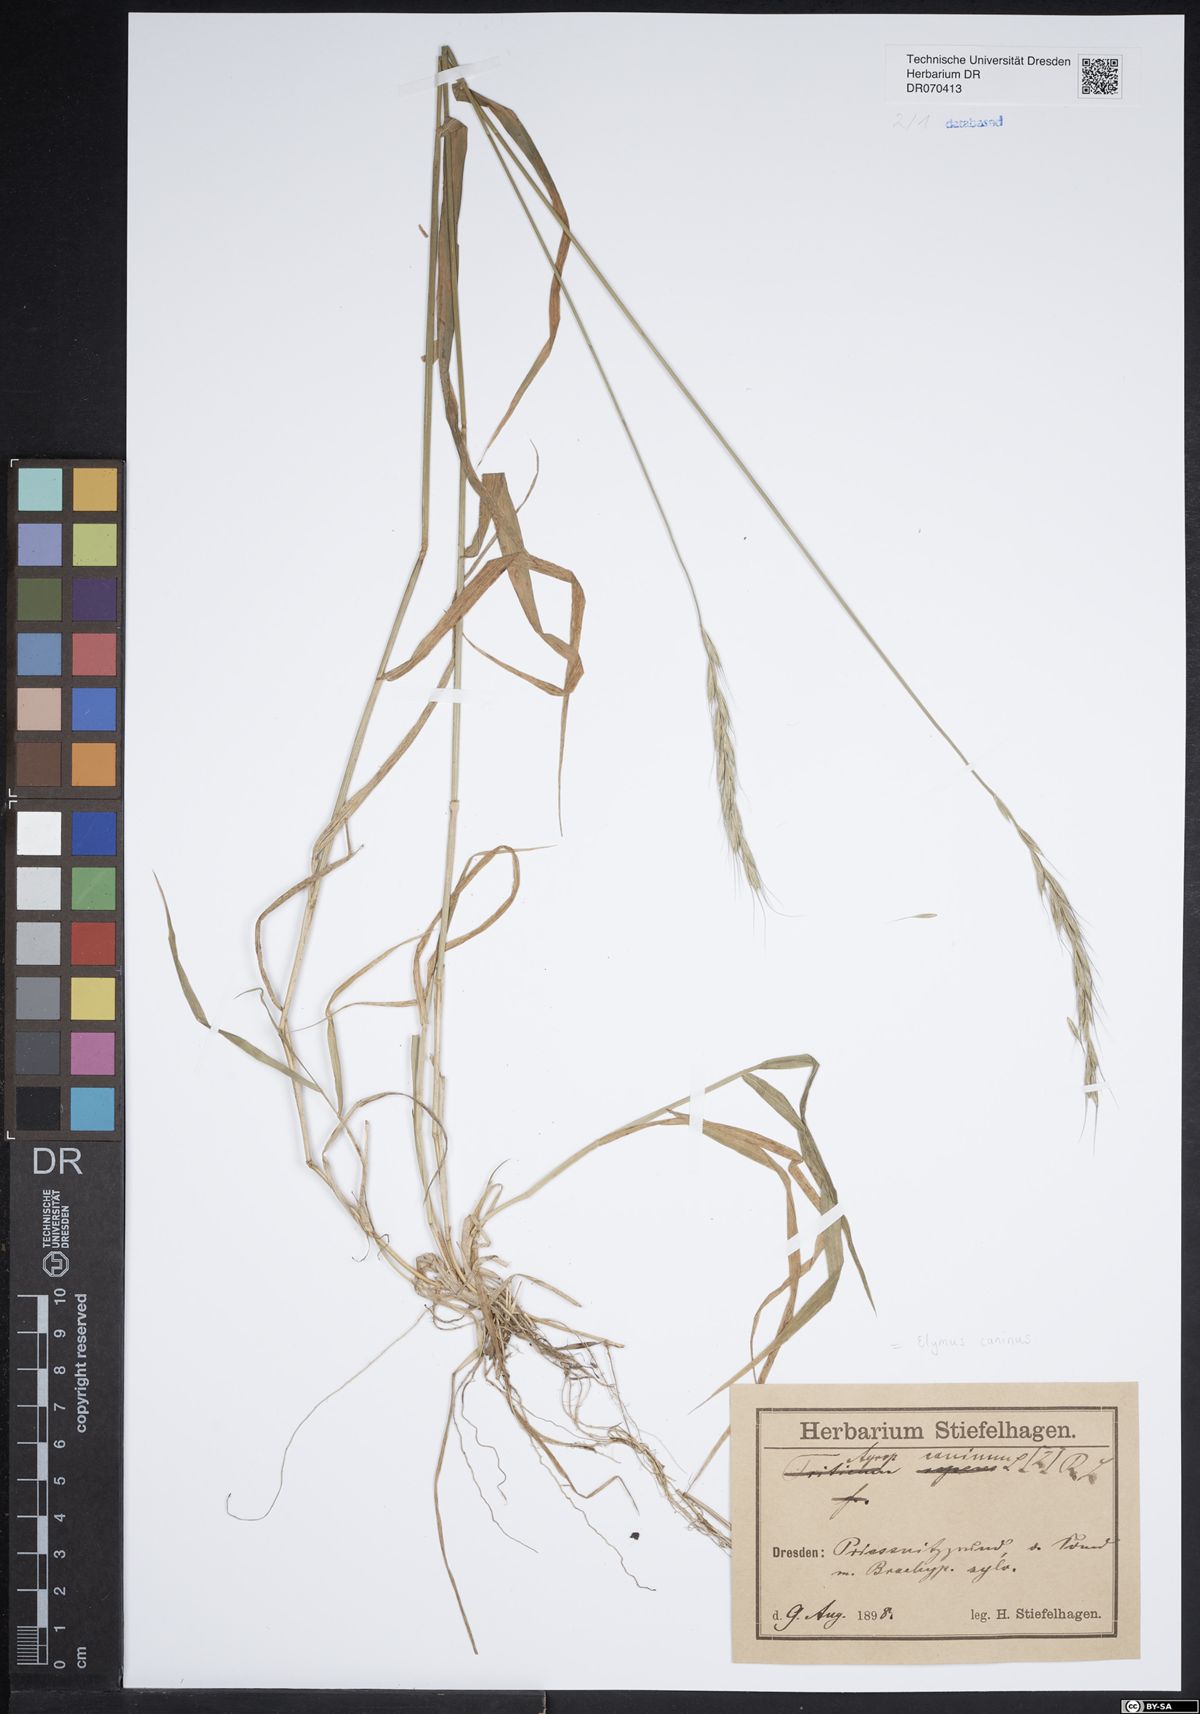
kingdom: Plantae
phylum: Tracheophyta
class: Liliopsida
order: Poales
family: Poaceae
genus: Elymus
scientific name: Elymus caninus
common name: Bearded couch
